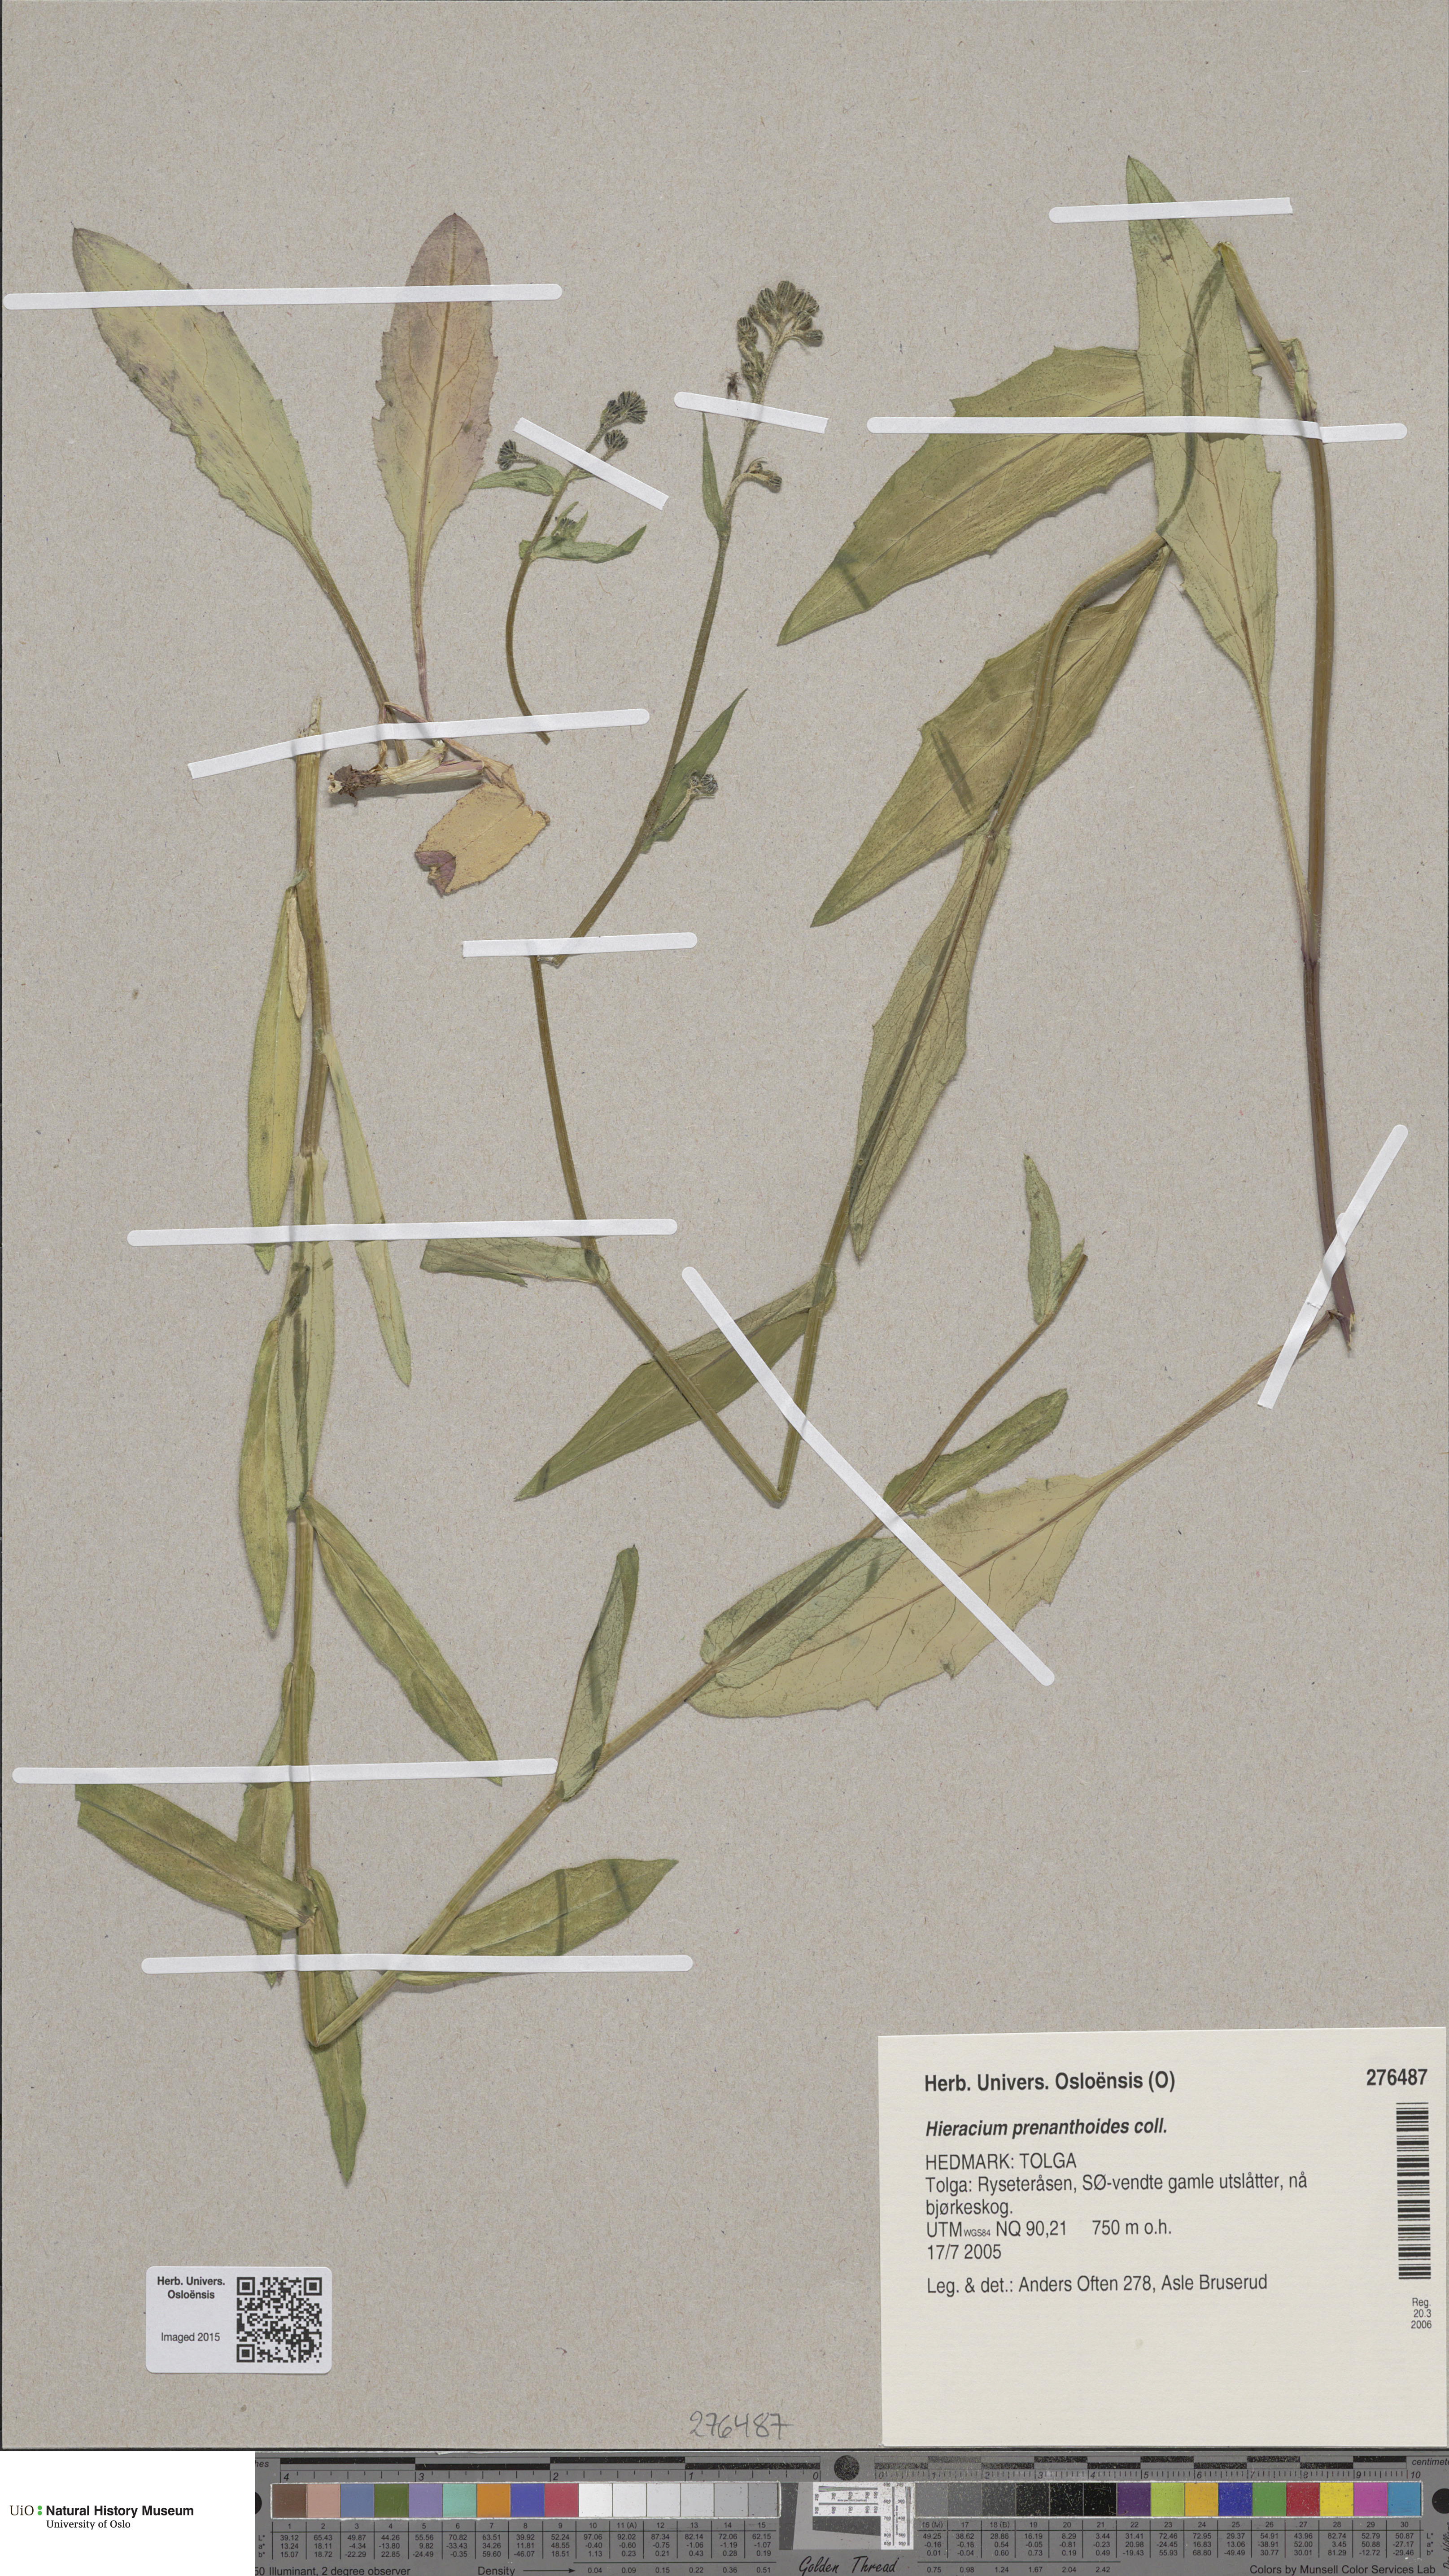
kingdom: Plantae
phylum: Tracheophyta
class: Magnoliopsida
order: Asterales
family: Asteraceae
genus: Hieracium
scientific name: Hieracium prenanthoides
